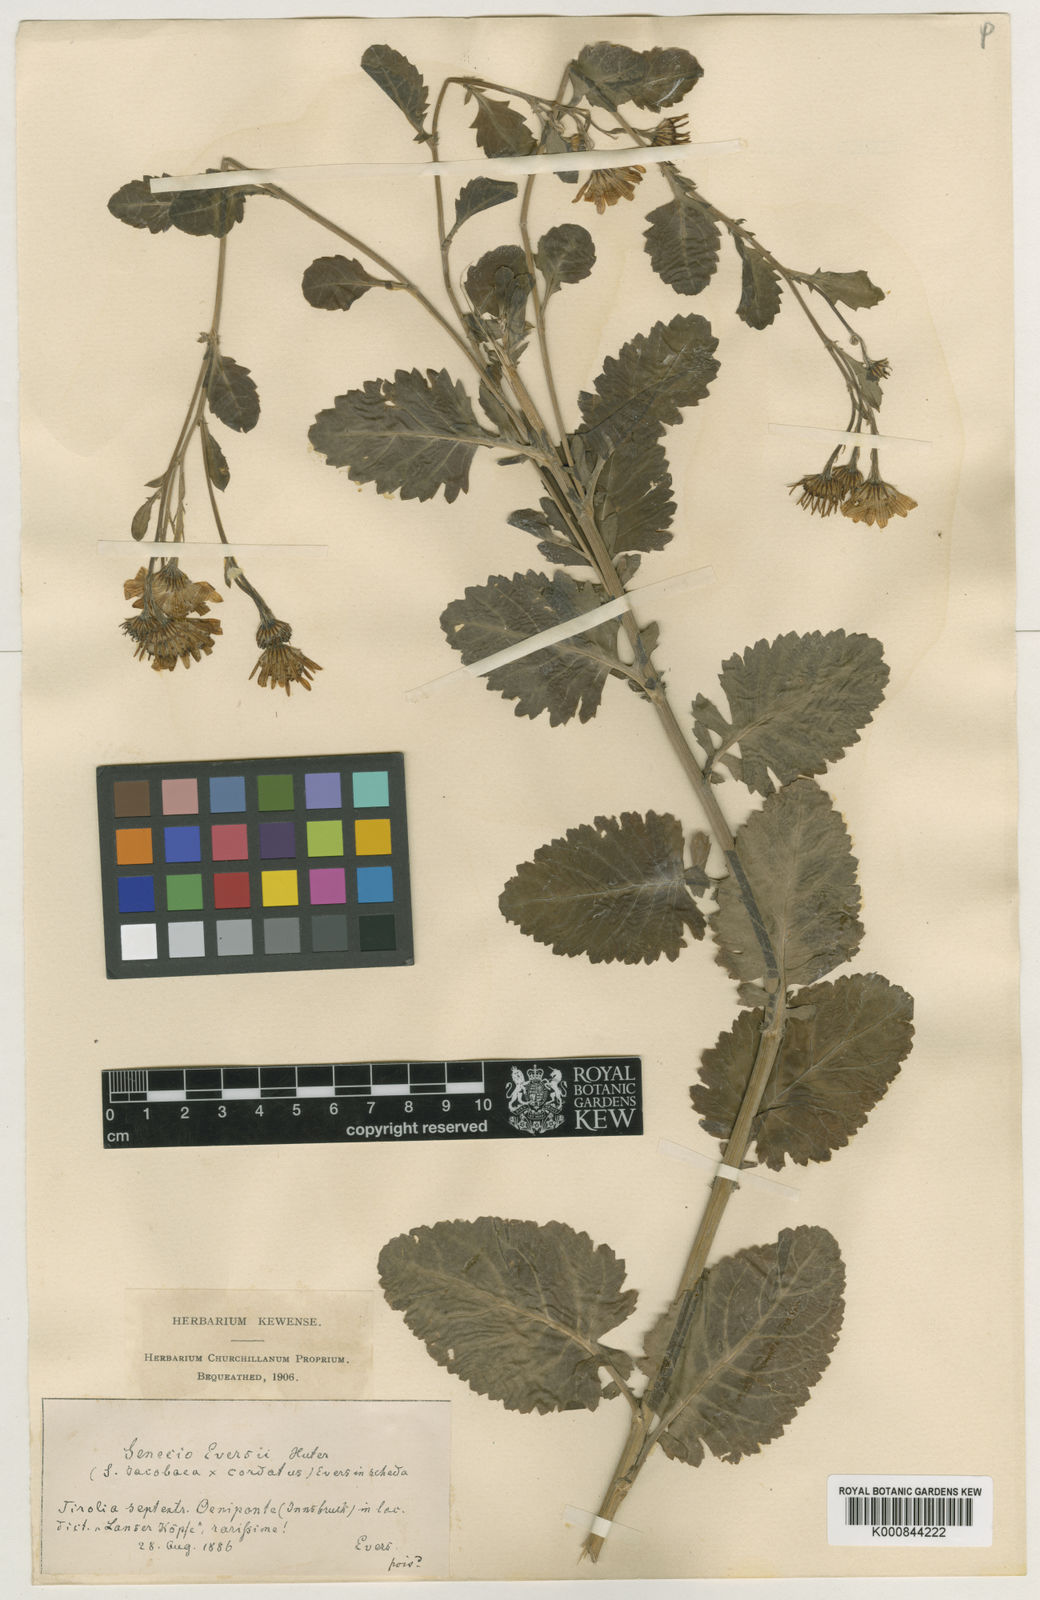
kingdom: Plantae
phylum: Tracheophyta
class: Magnoliopsida
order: Asterales
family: Asteraceae
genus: Jacobaea
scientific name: Jacobaea subalpina
